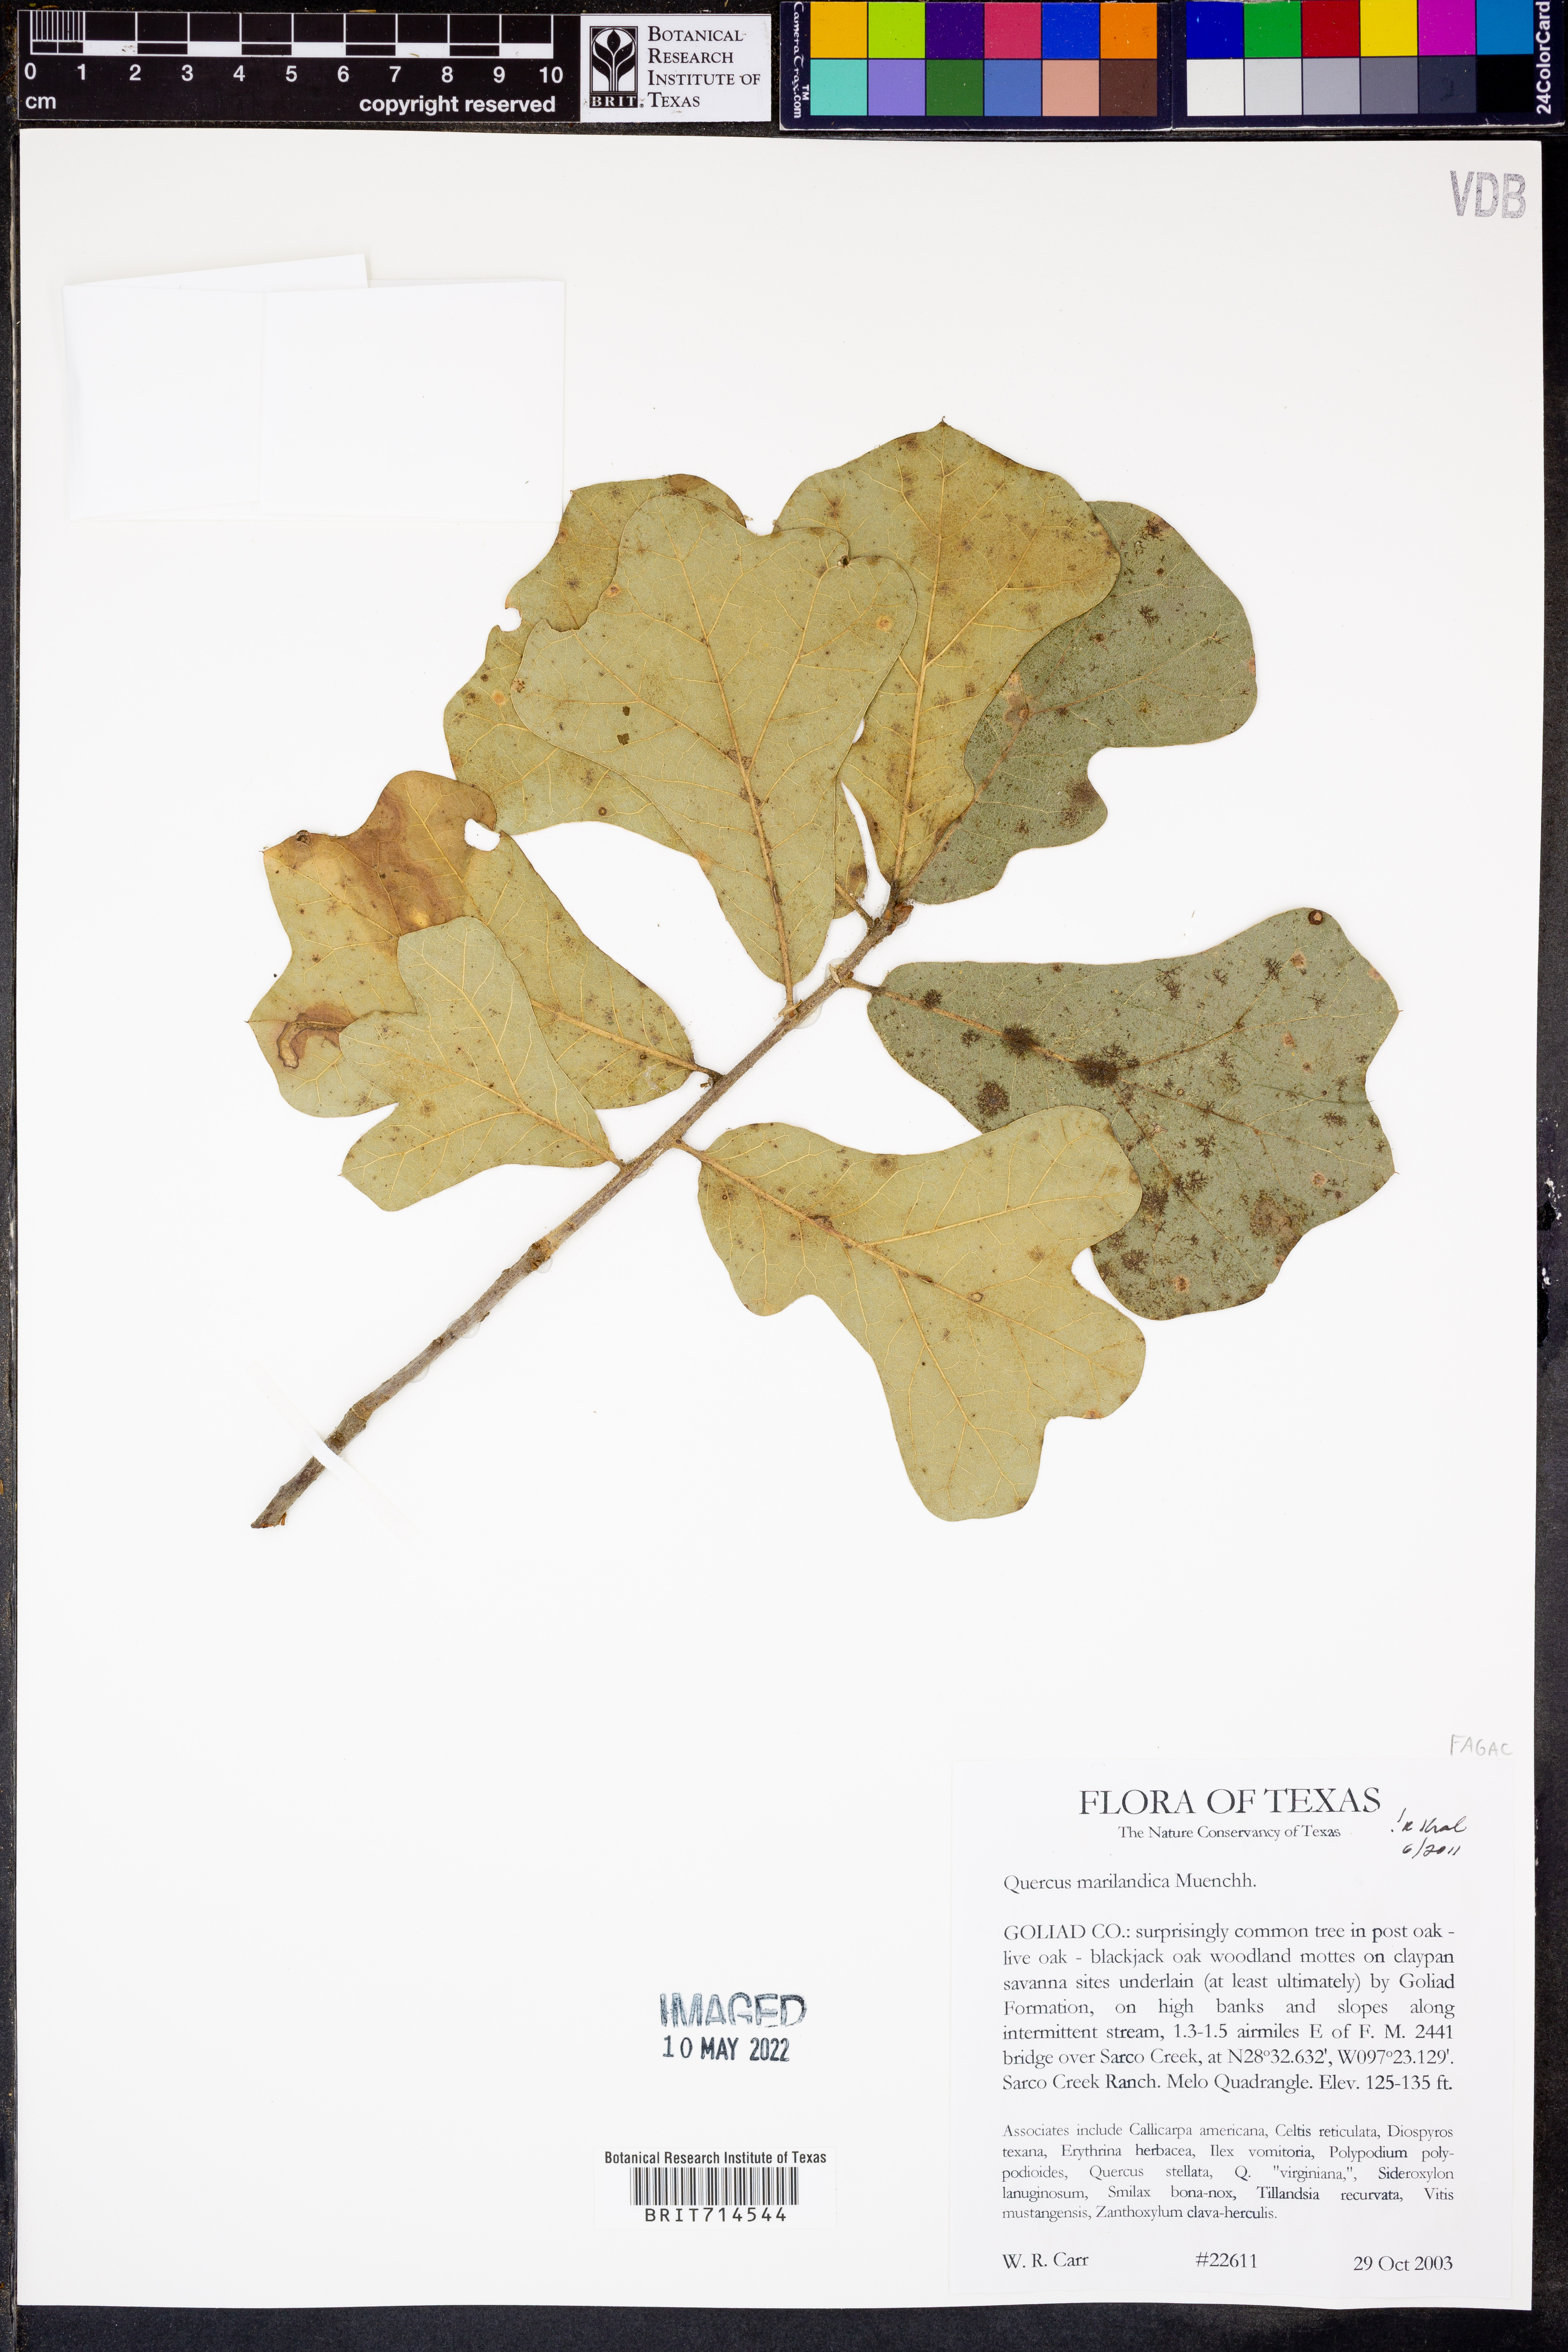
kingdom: Plantae
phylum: Tracheophyta
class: Magnoliopsida
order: Fagales
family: Fagaceae
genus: Quercus
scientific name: Quercus marilandica
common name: Blackjack oak
